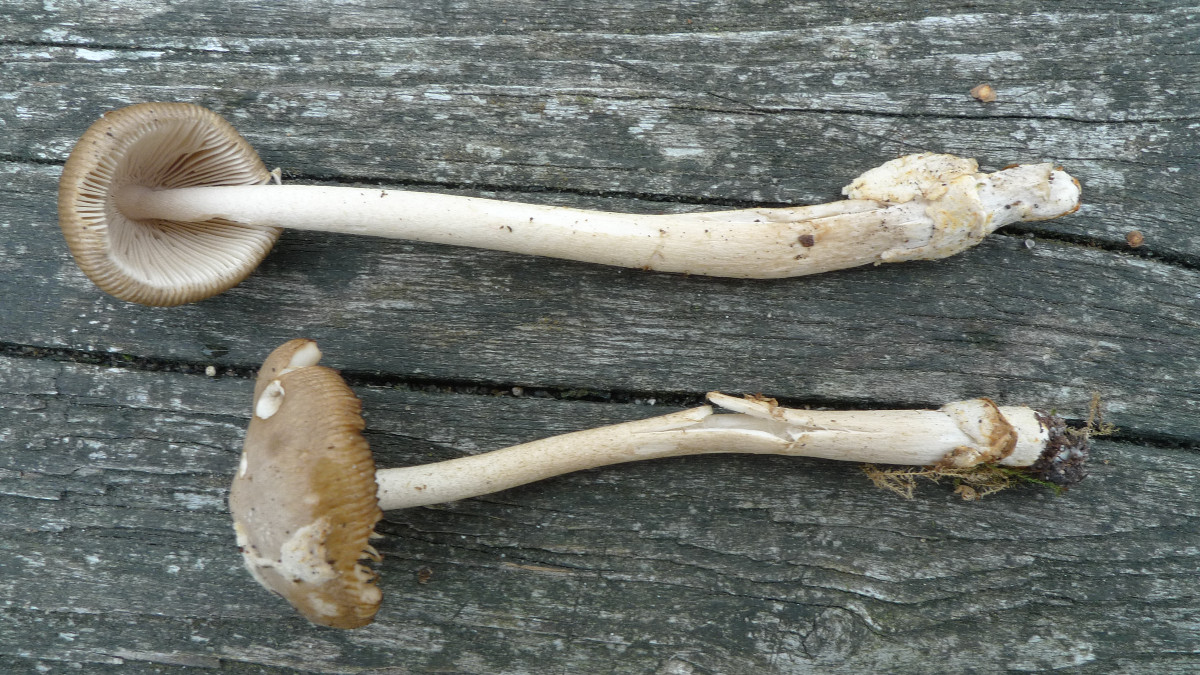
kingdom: Fungi
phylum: Basidiomycota
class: Agaricomycetes
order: Agaricales
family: Amanitaceae
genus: Amanita
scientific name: Amanita olivaceogrisea
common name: olivengrå kam-fluesvamp
